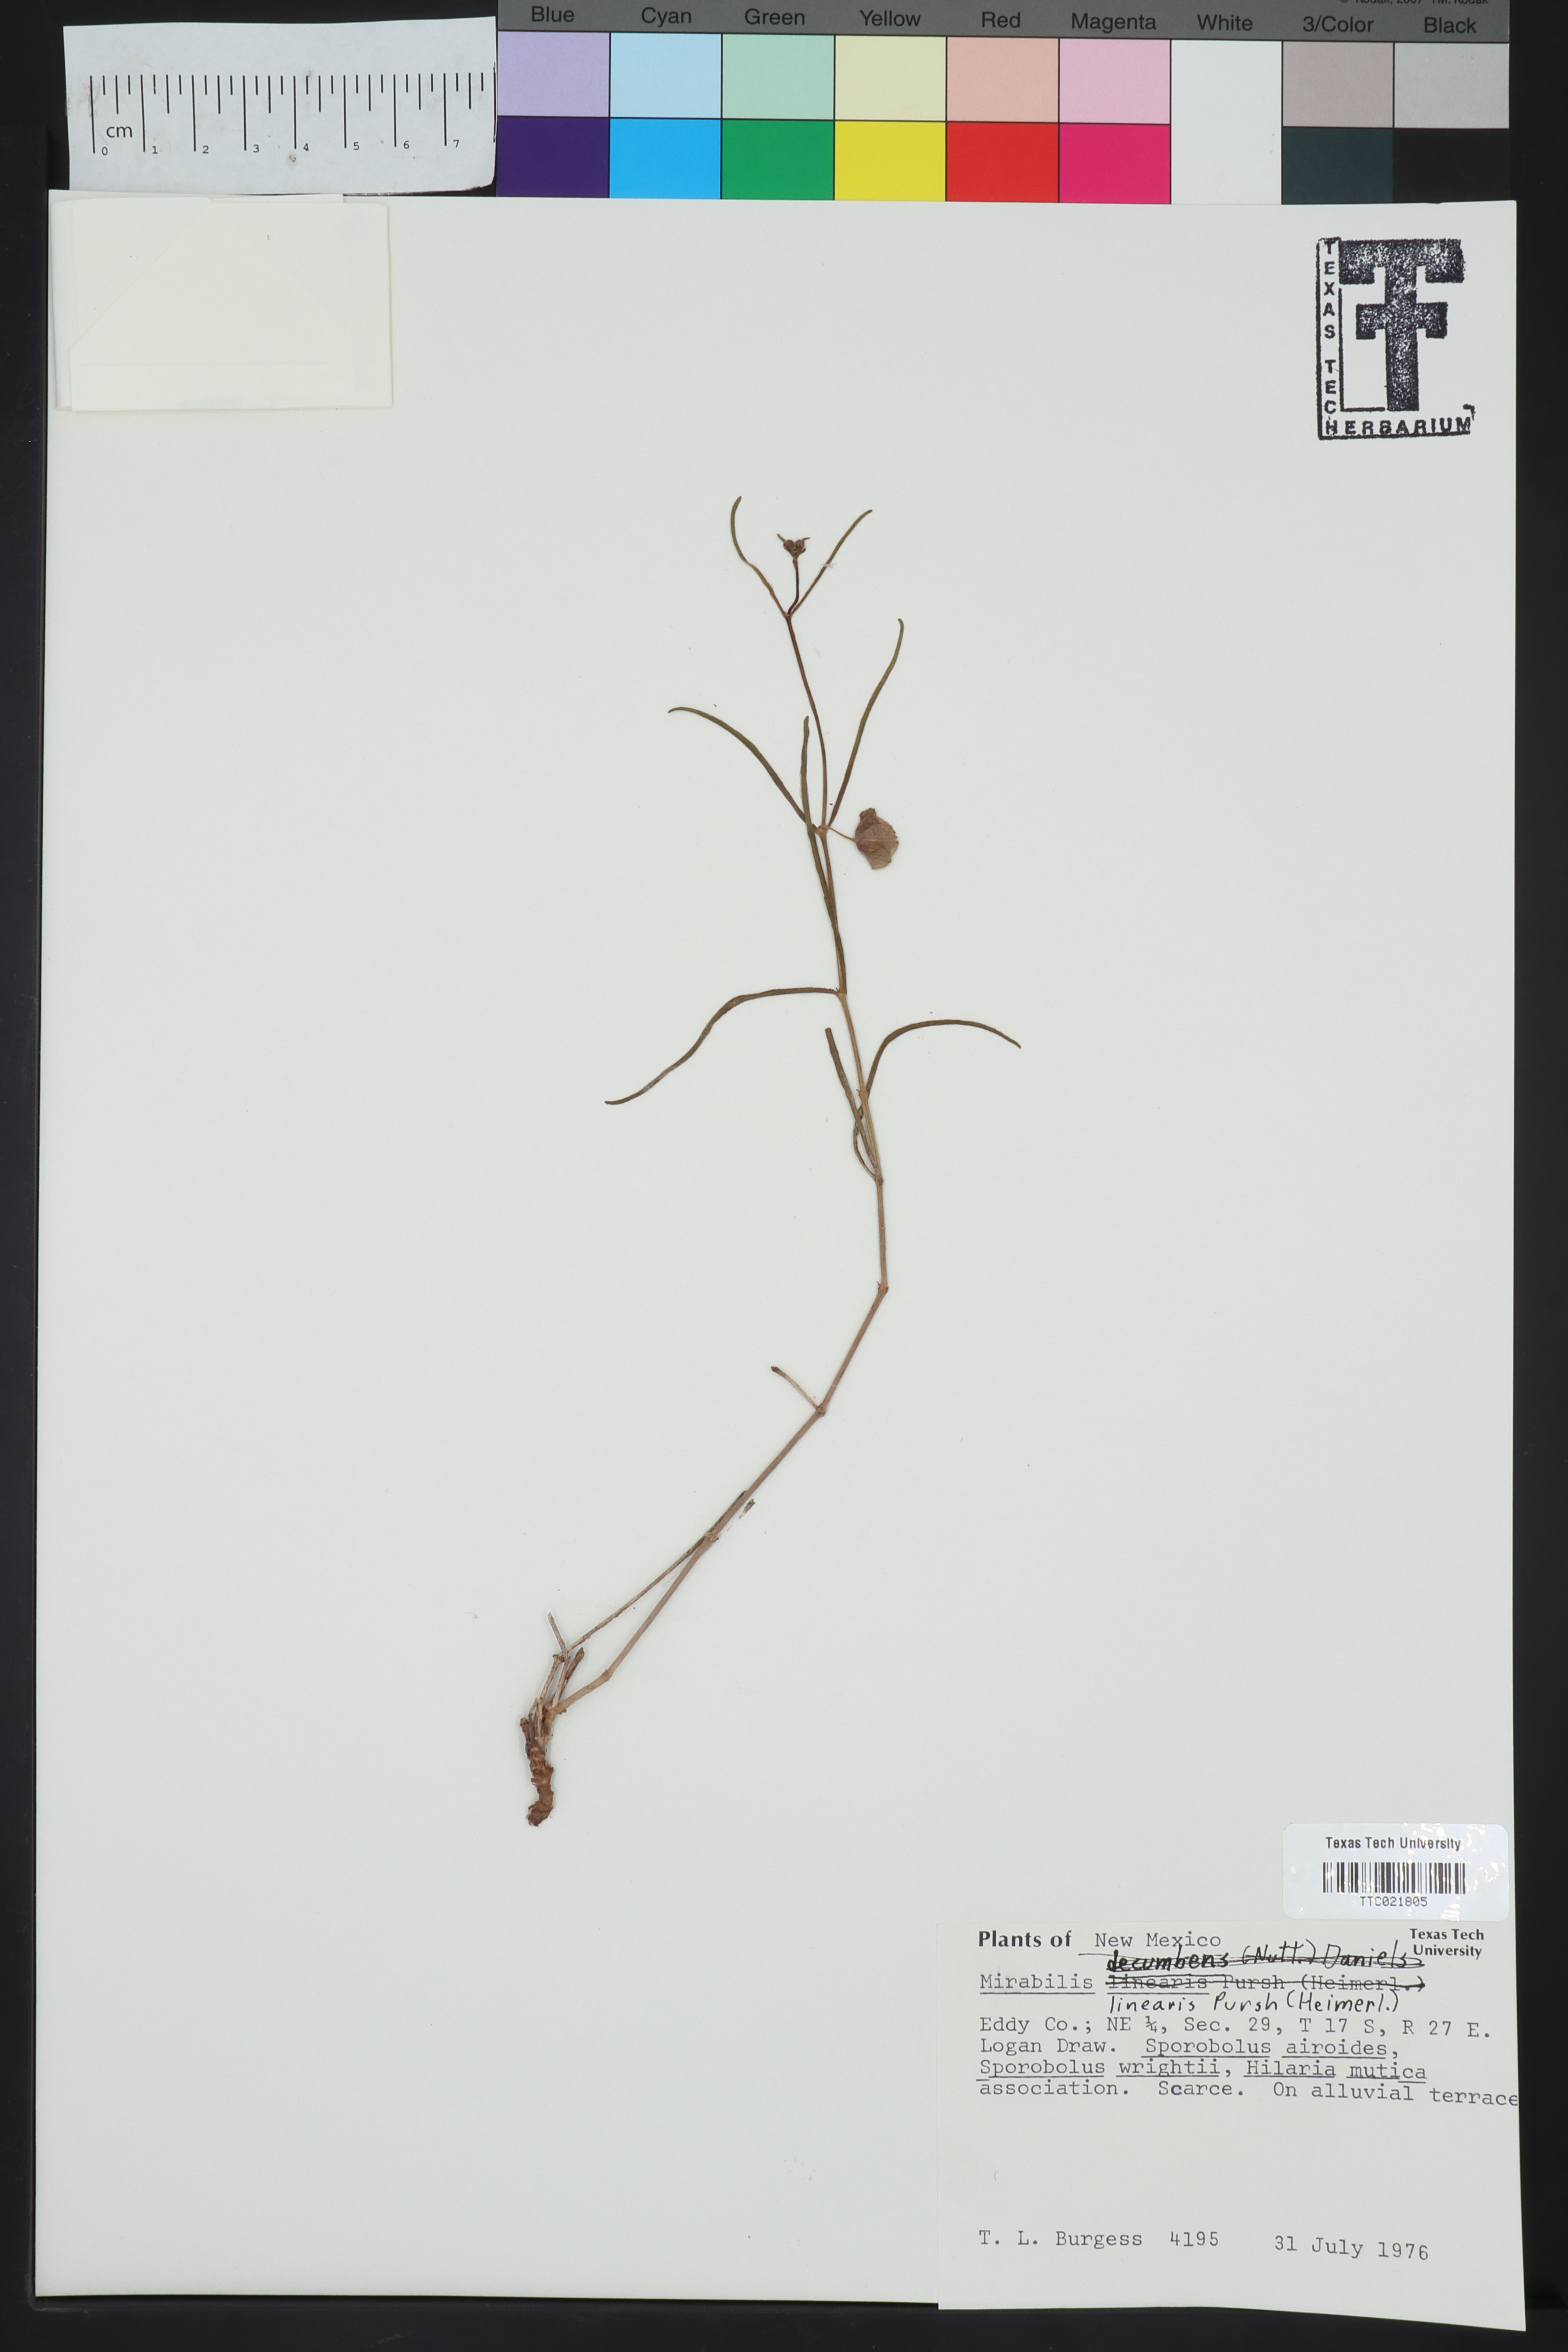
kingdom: Plantae
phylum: Tracheophyta
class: Magnoliopsida
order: Caryophyllales
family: Nyctaginaceae
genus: Mirabilis
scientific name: Mirabilis linearis
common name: Linear-leaved four-o'clock
